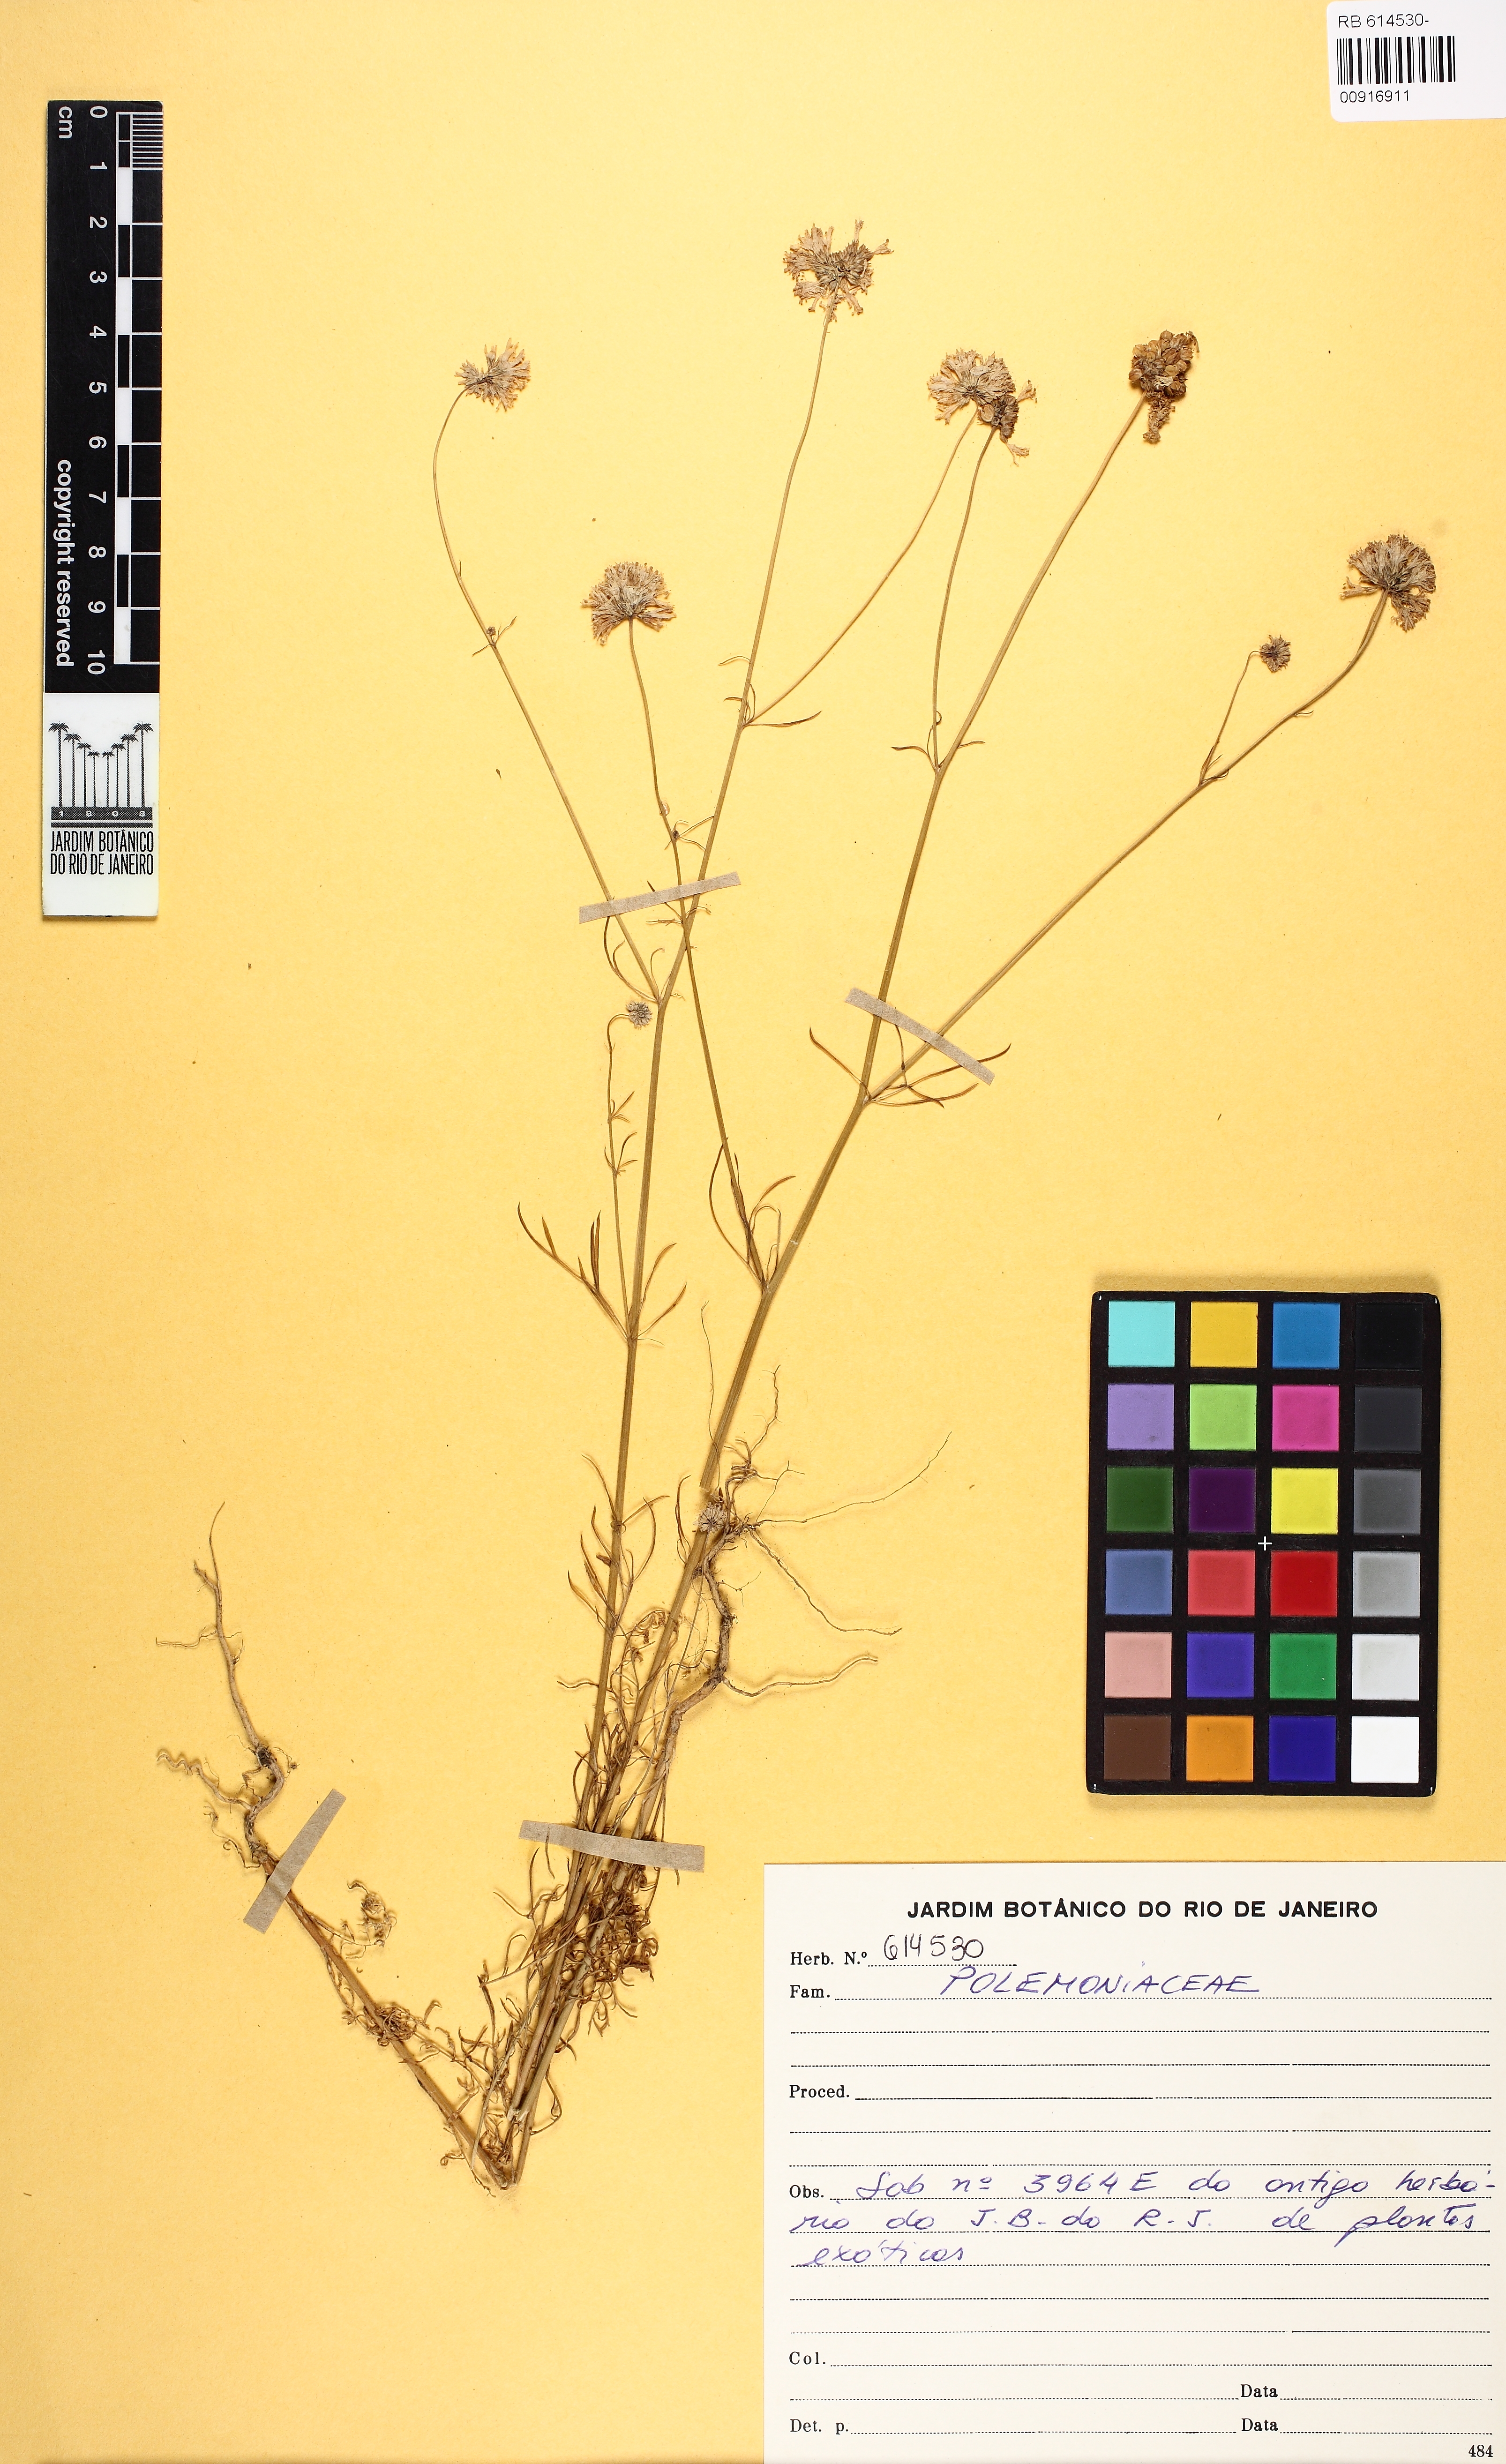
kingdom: Plantae
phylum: Tracheophyta
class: Magnoliopsida
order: Ericales
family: Polemoniaceae
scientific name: Polemoniaceae
